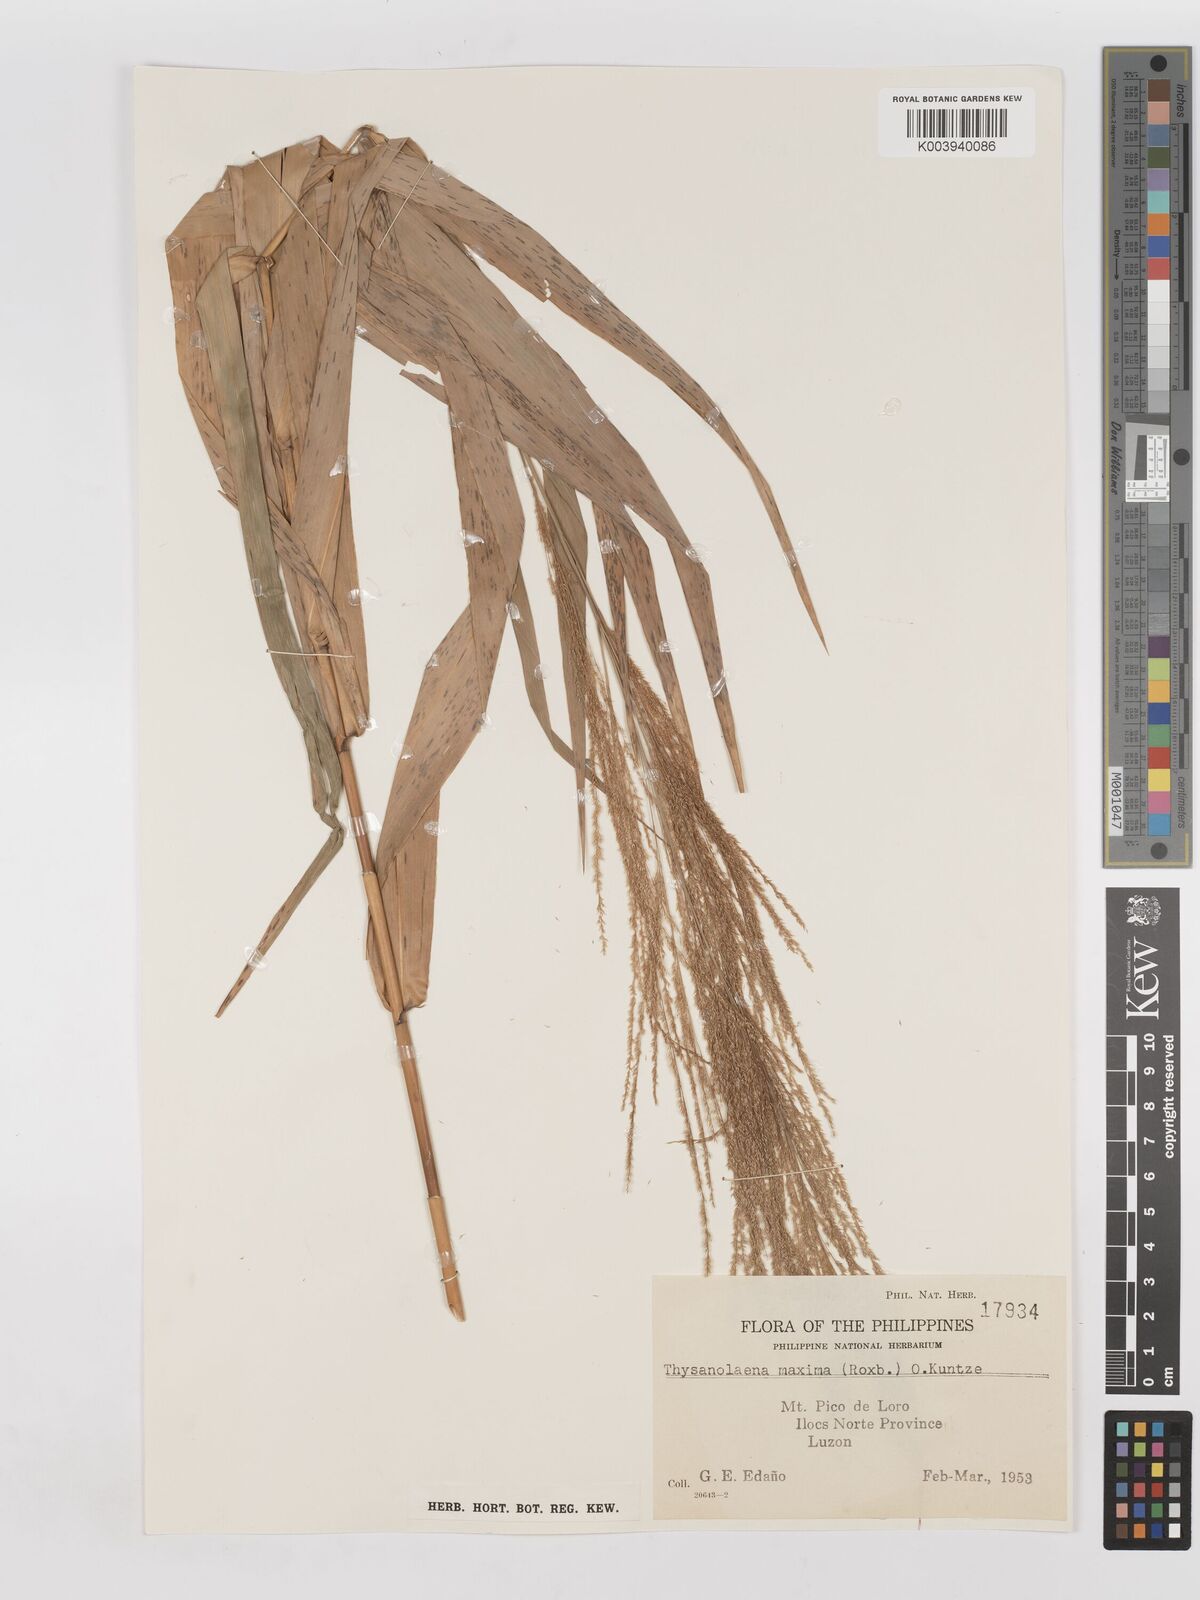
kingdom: Plantae
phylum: Tracheophyta
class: Liliopsida
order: Poales
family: Poaceae
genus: Thysanolaena
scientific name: Thysanolaena latifolia
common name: Tiger grass
